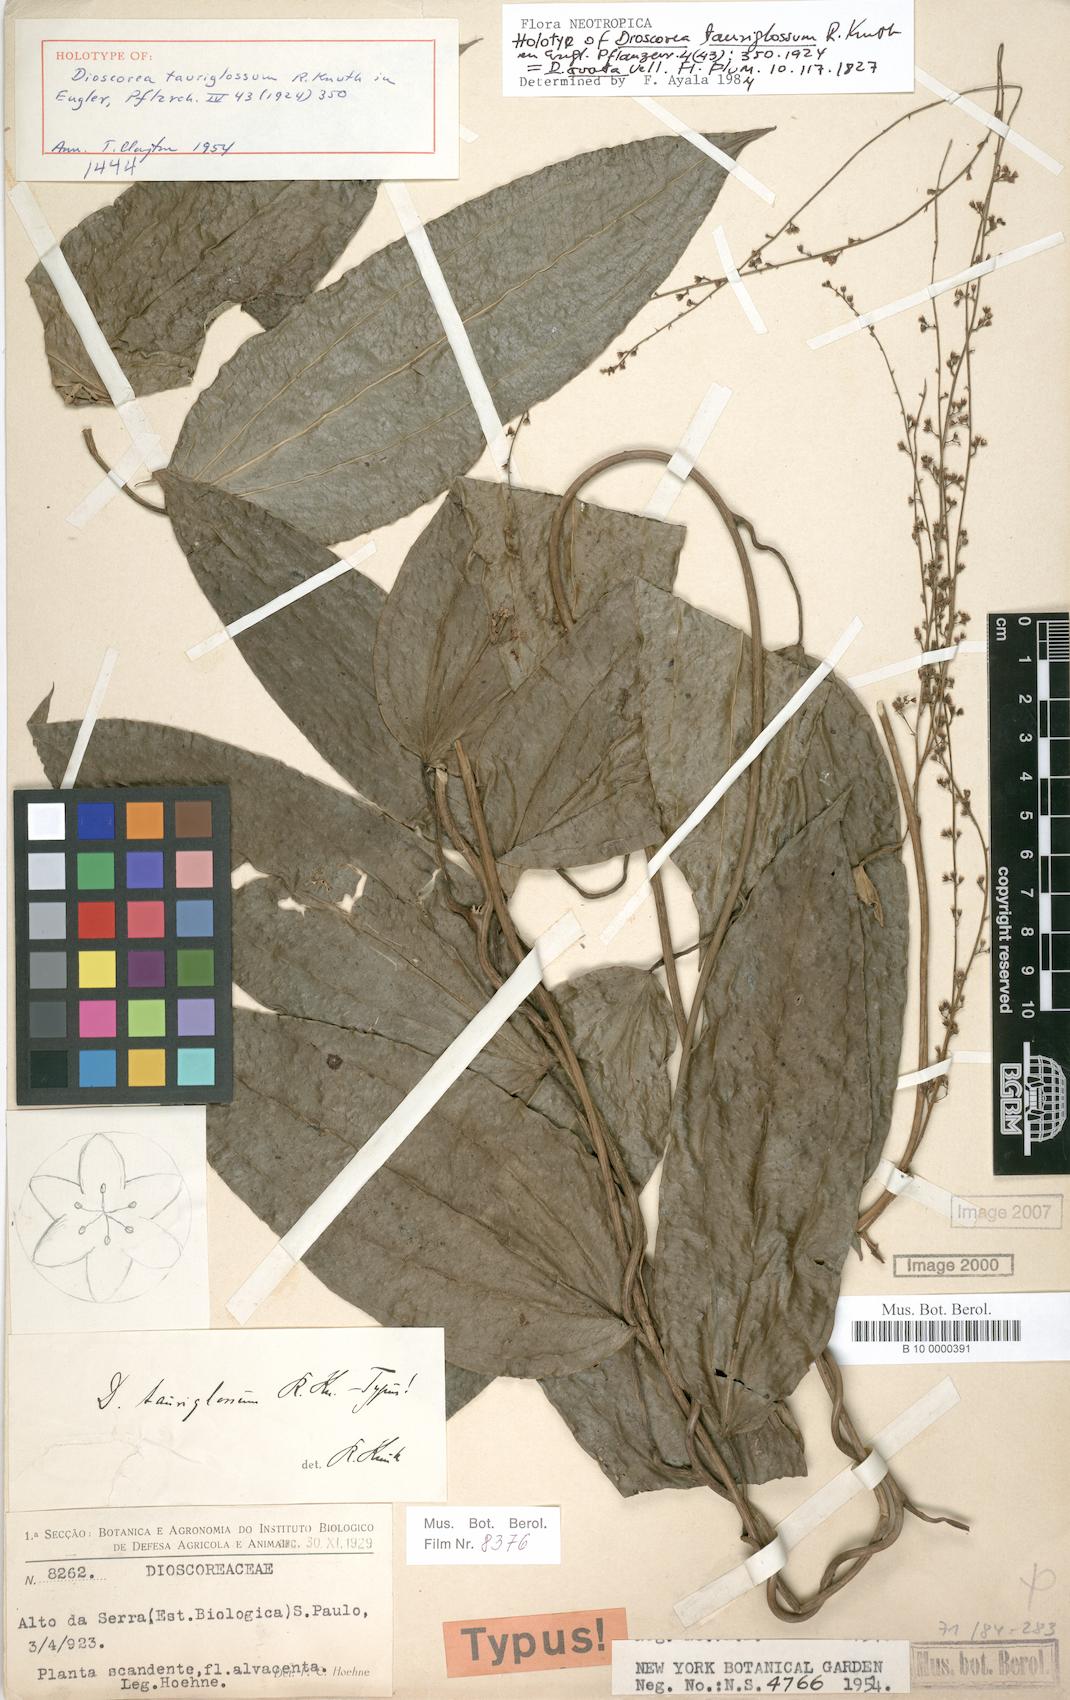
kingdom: Plantae
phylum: Tracheophyta
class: Liliopsida
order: Dioscoreales
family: Dioscoreaceae
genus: Dioscorea
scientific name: Dioscorea ovata
